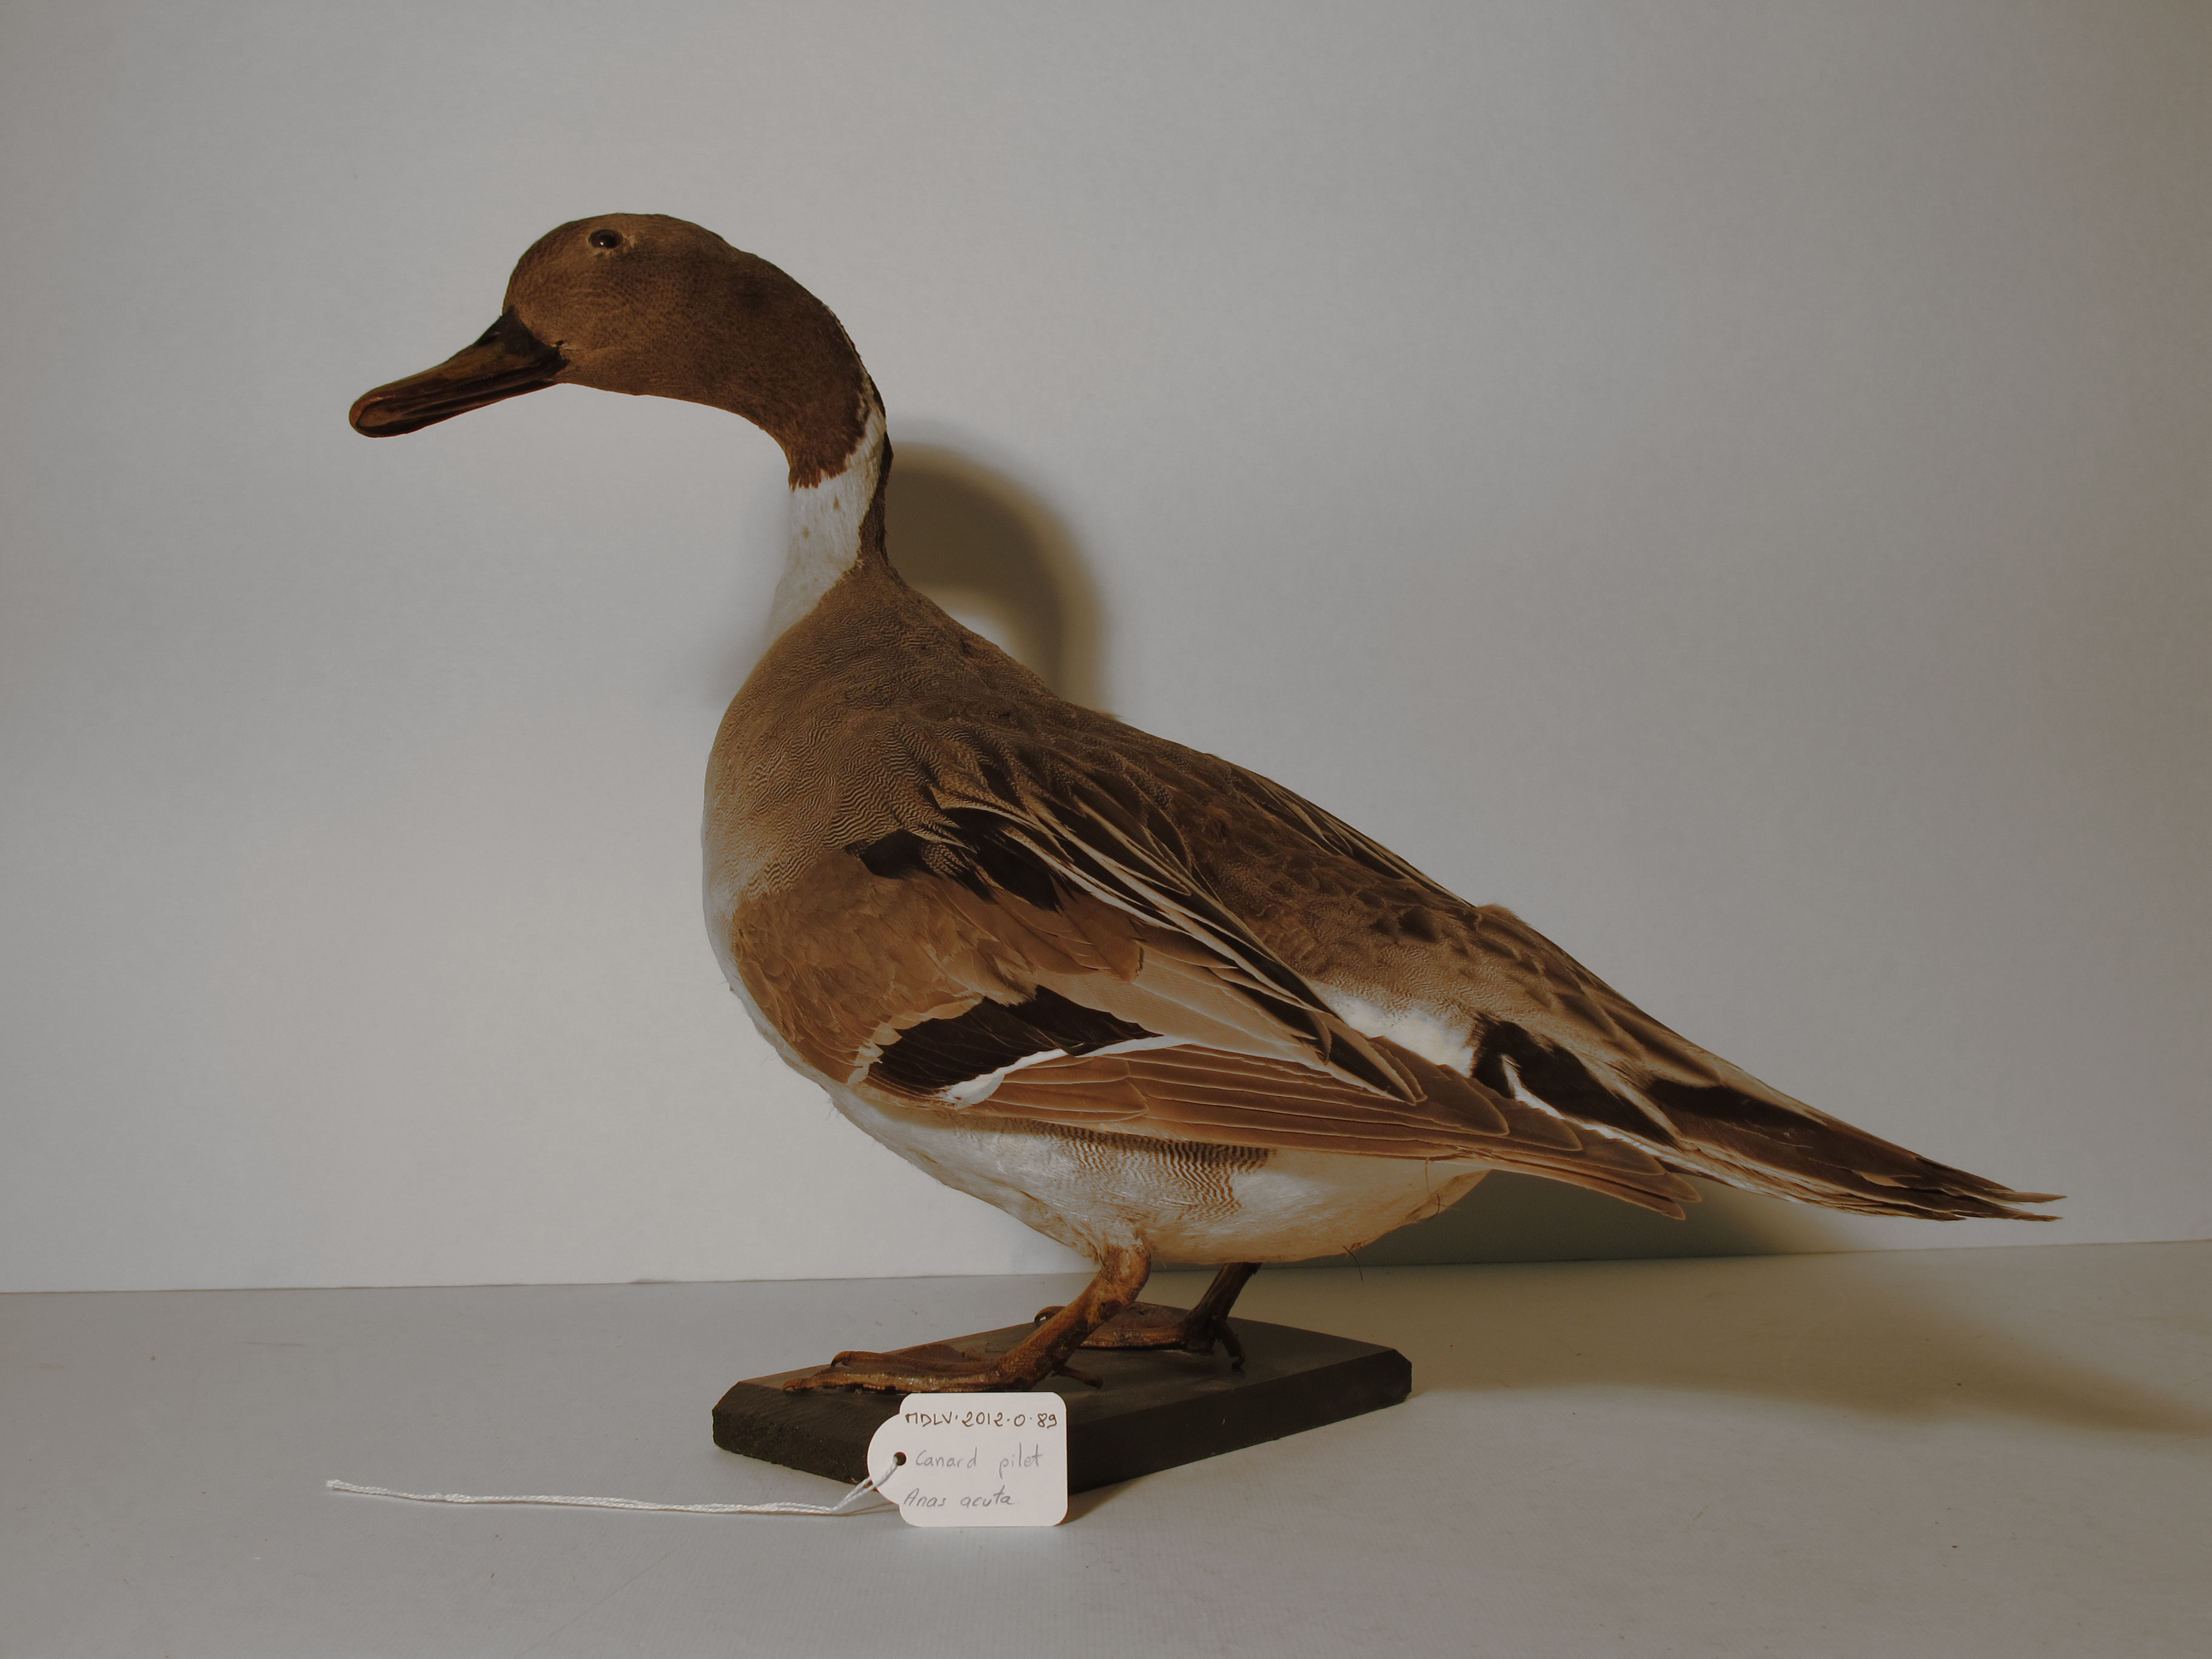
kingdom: Animalia
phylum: Chordata
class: Aves
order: Anseriformes
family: Anatidae
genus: Anas
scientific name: Anas acuta
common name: Northern Pintail
